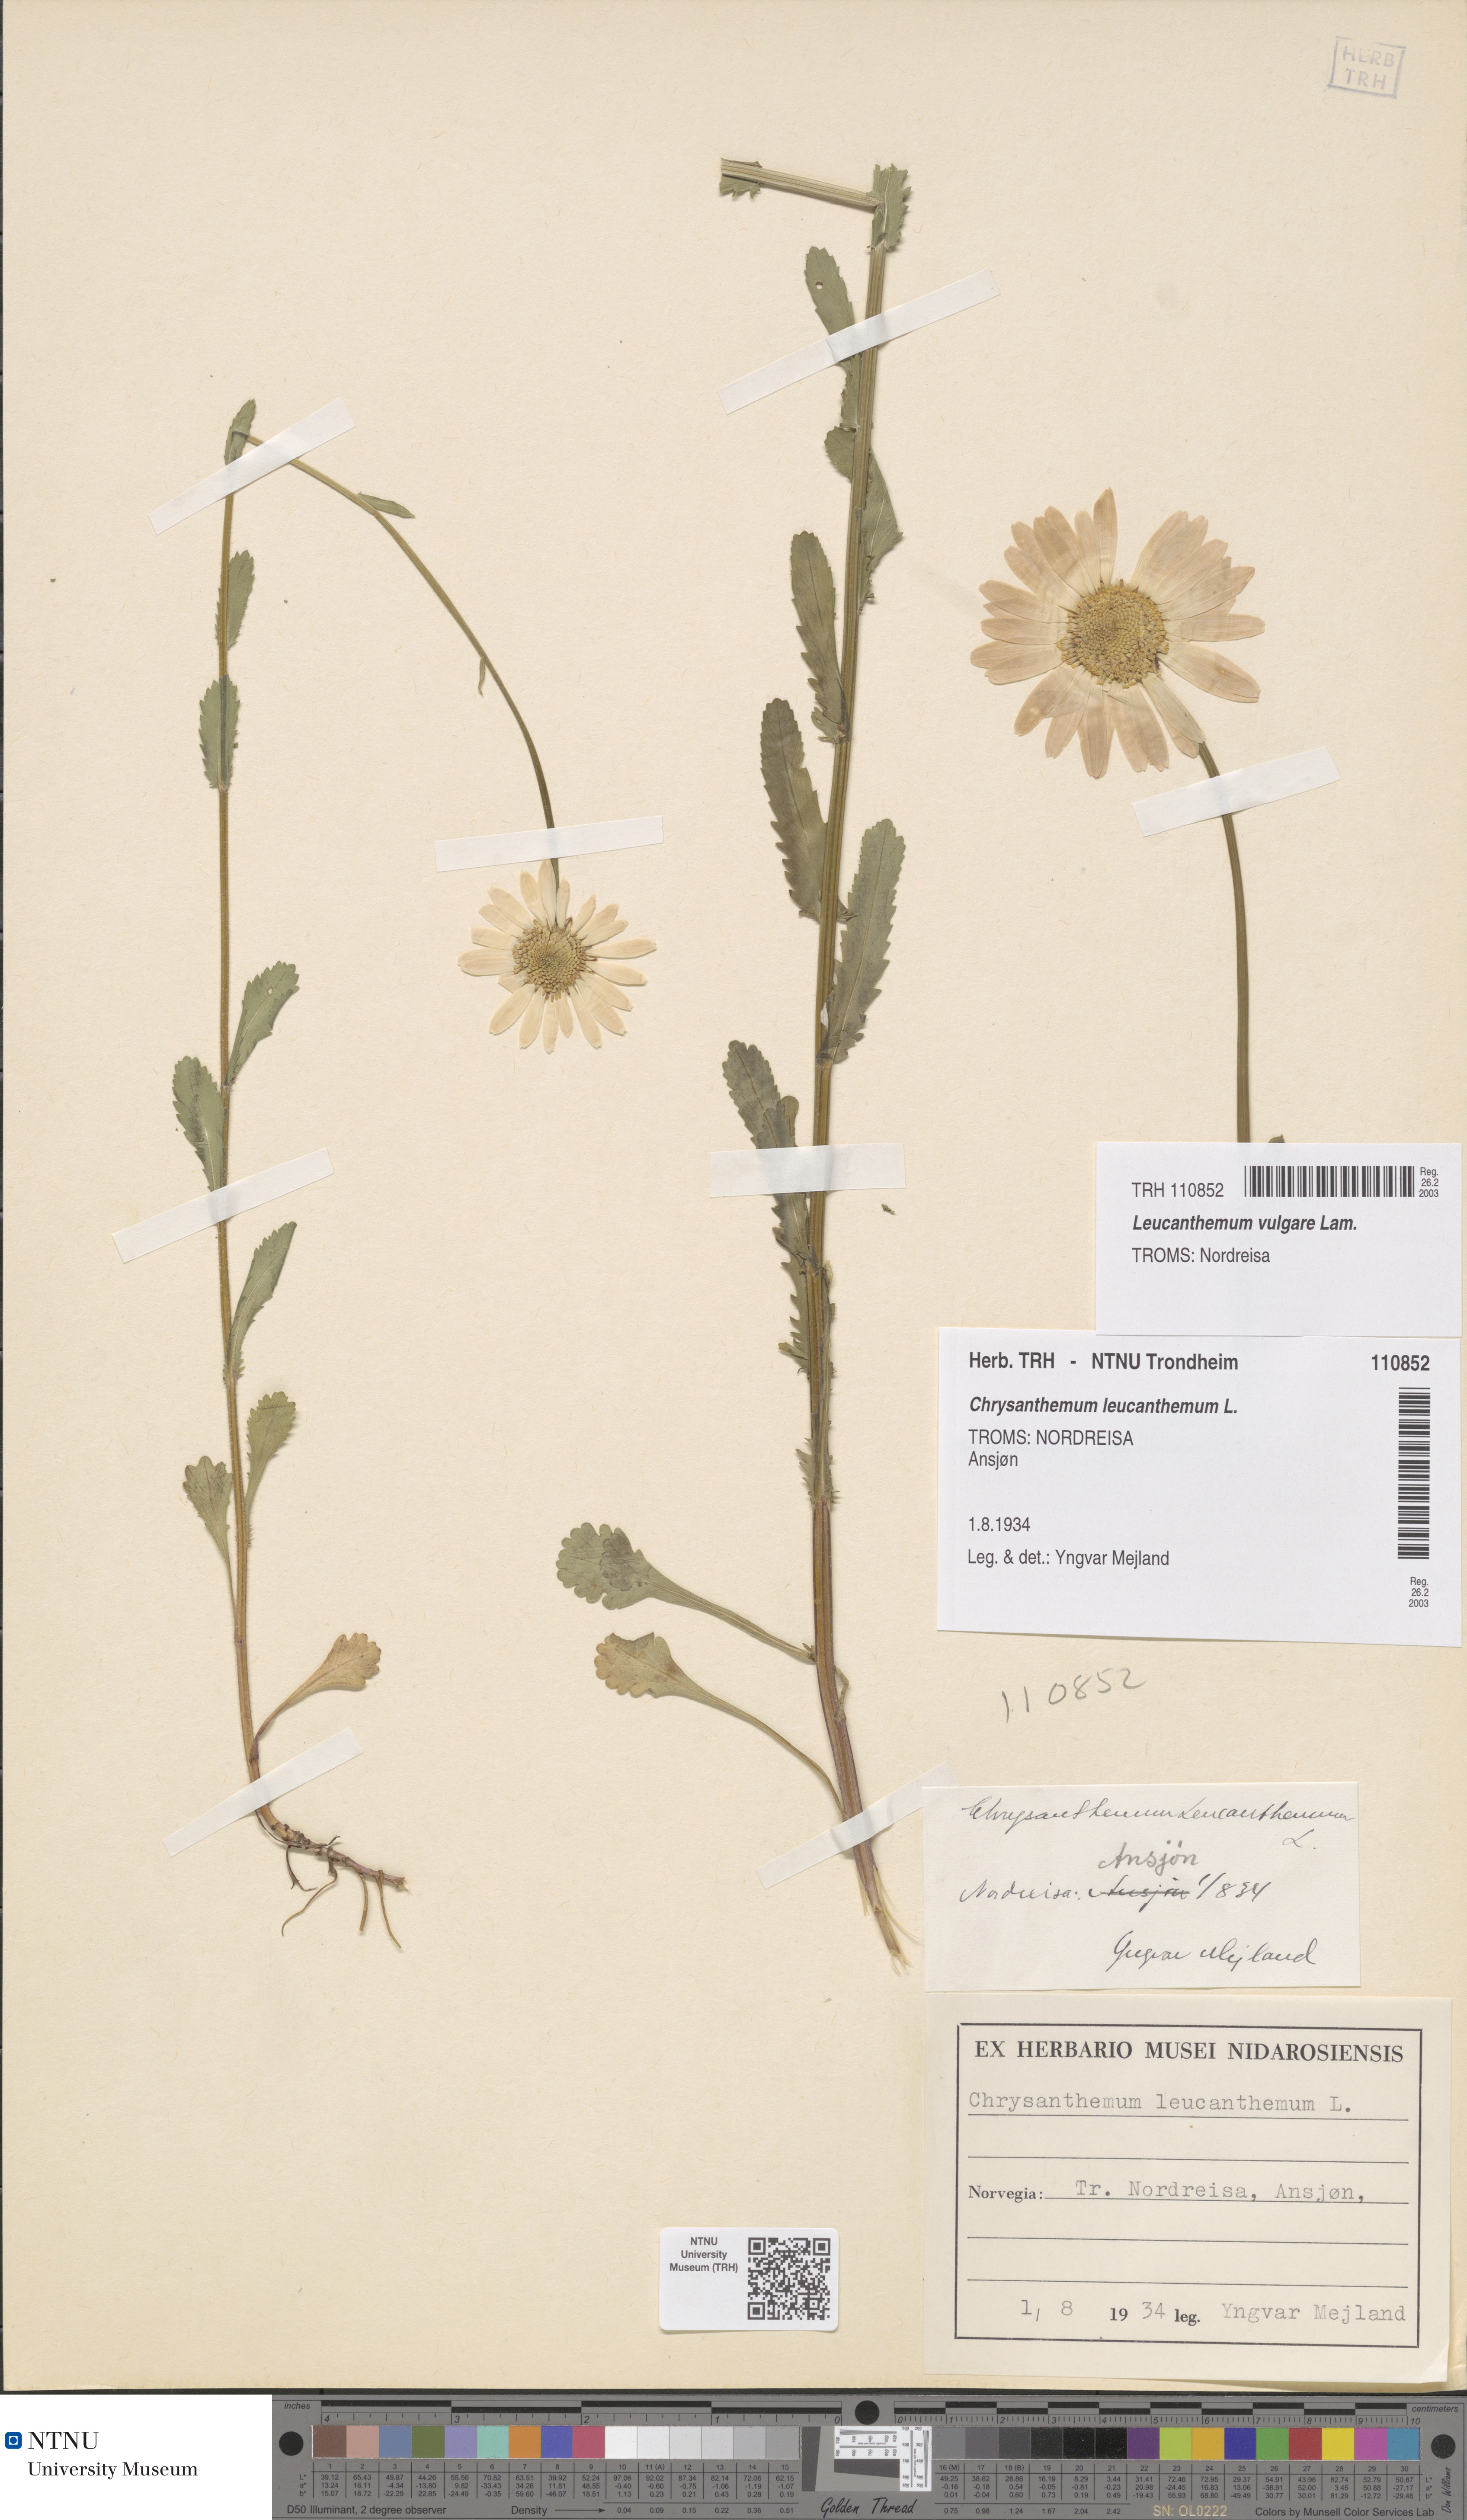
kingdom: Plantae
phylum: Tracheophyta
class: Magnoliopsida
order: Asterales
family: Asteraceae
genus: Leucanthemum
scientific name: Leucanthemum vulgare
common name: Oxeye daisy
